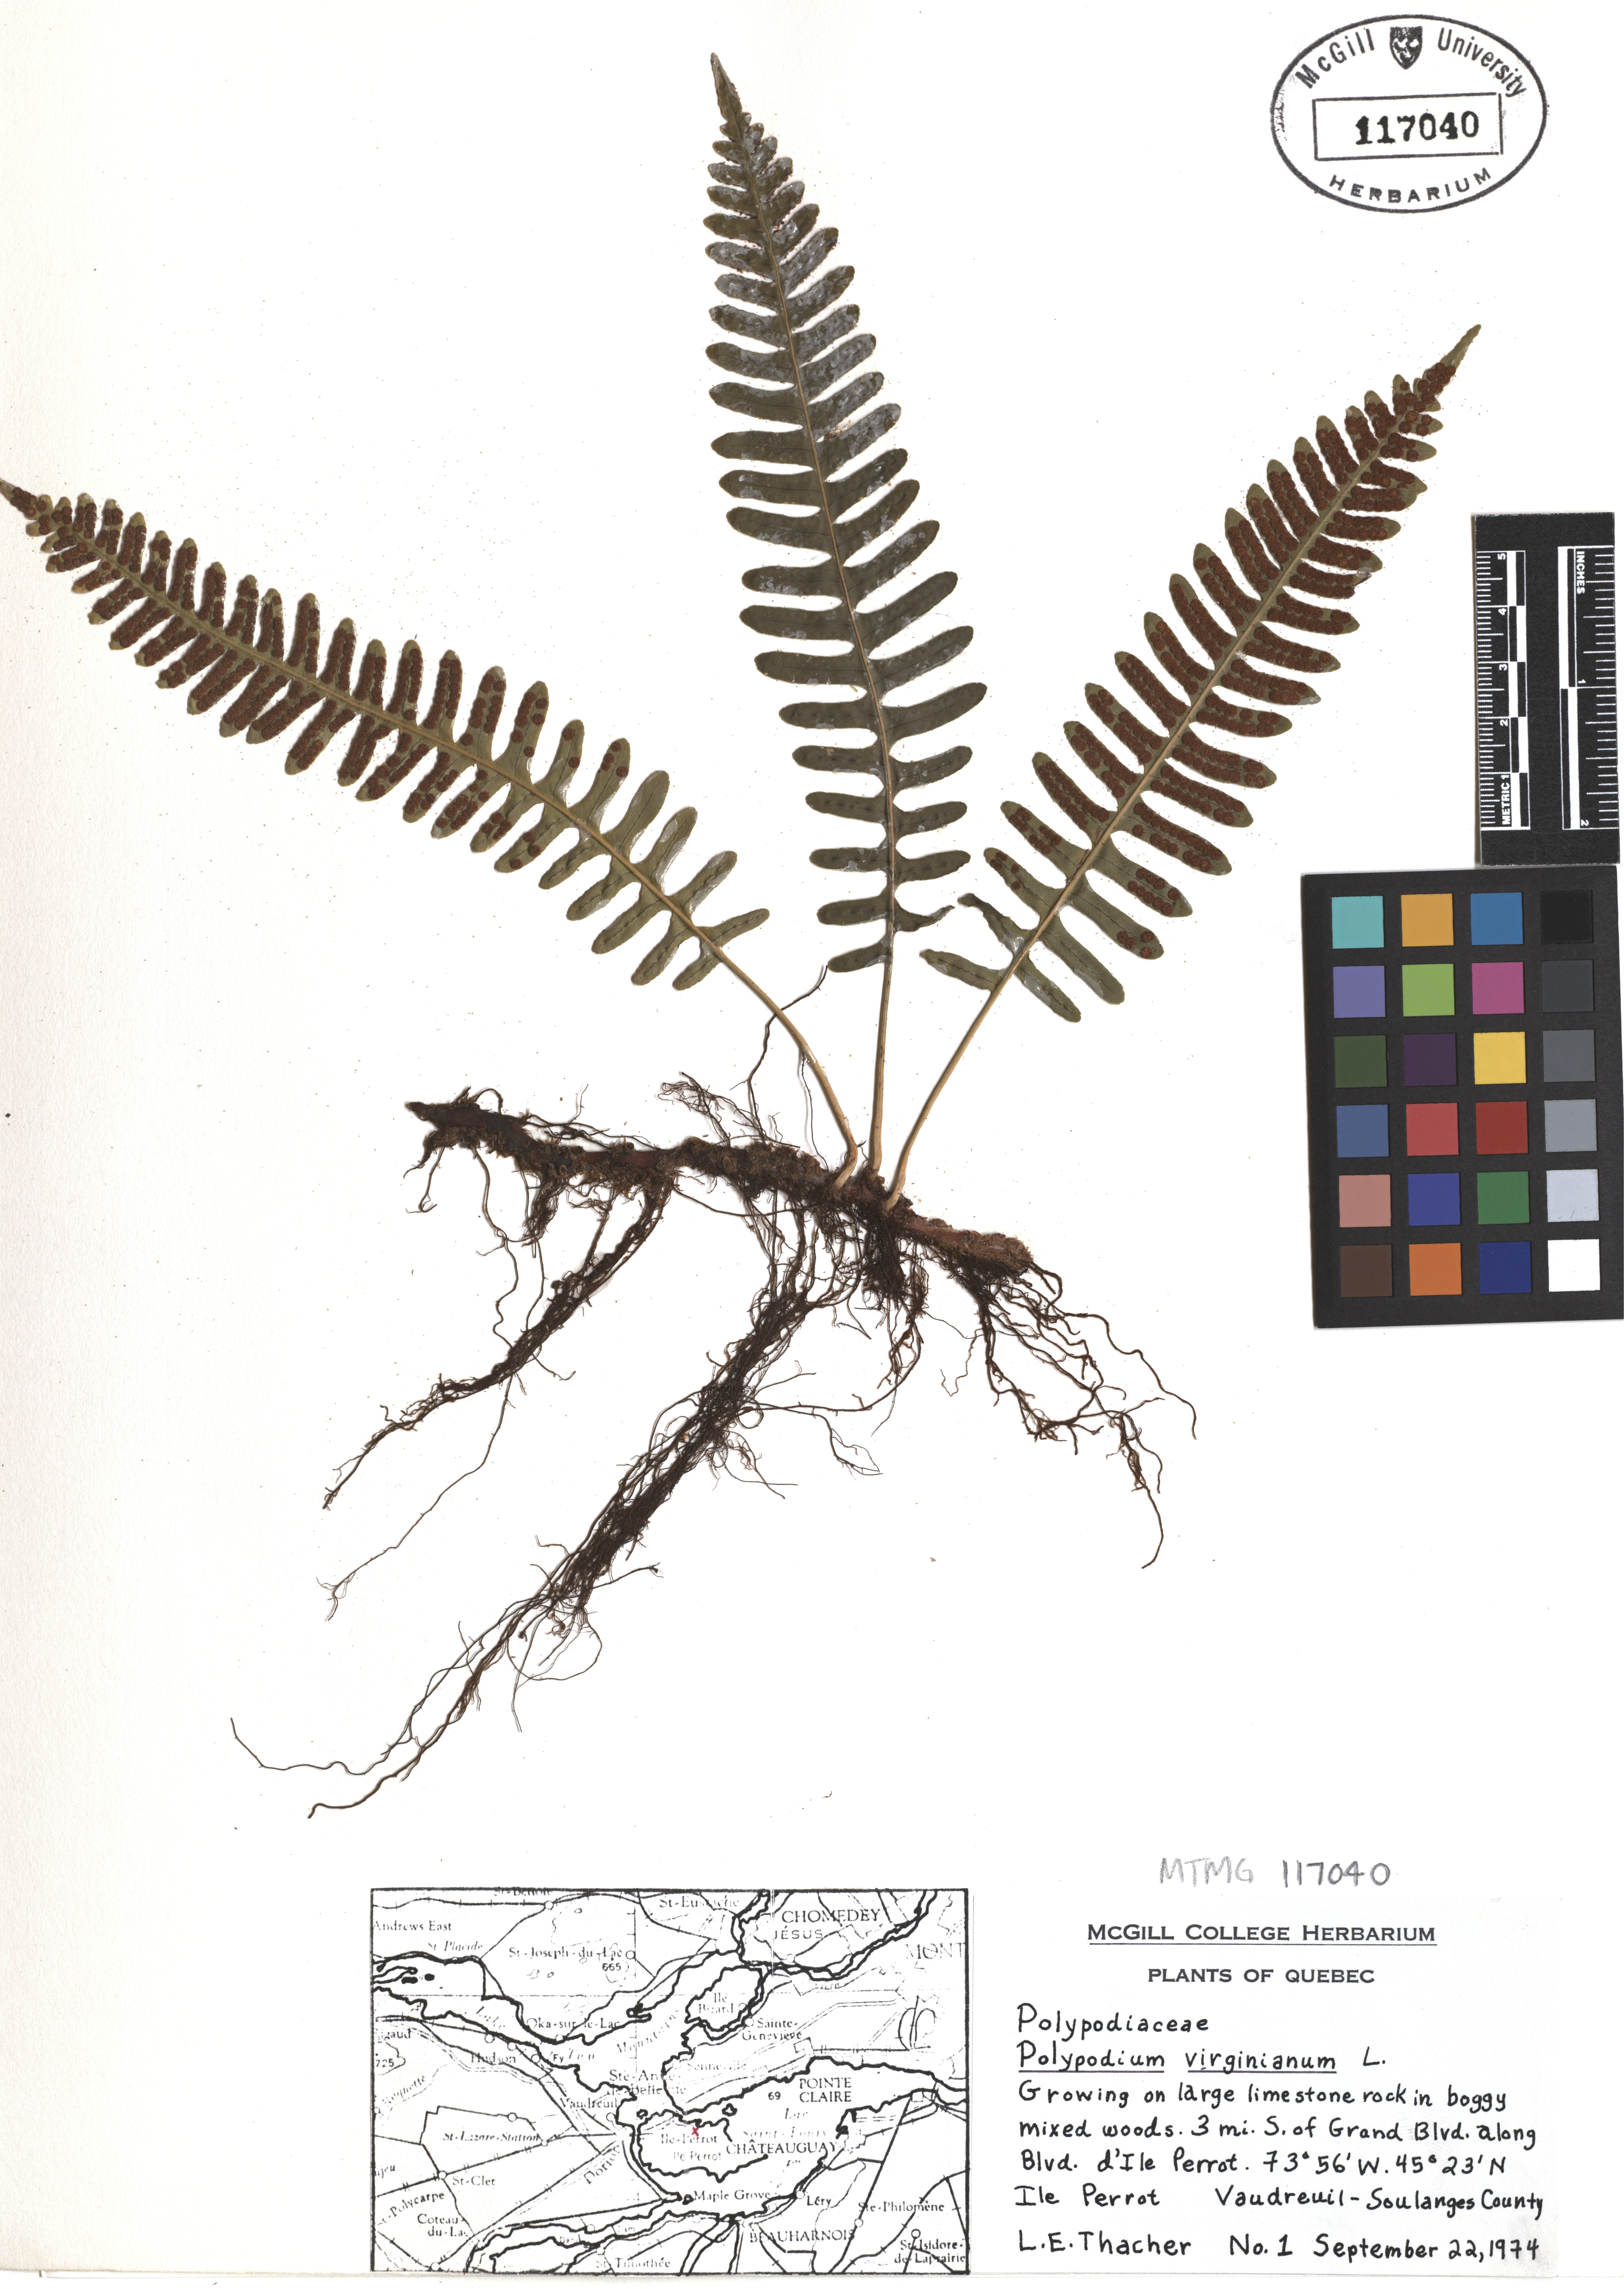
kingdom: Plantae
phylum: Tracheophyta
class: Polypodiopsida
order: Polypodiales
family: Polypodiaceae
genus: Polypodium
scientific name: Polypodium virginianum
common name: American wall fern
